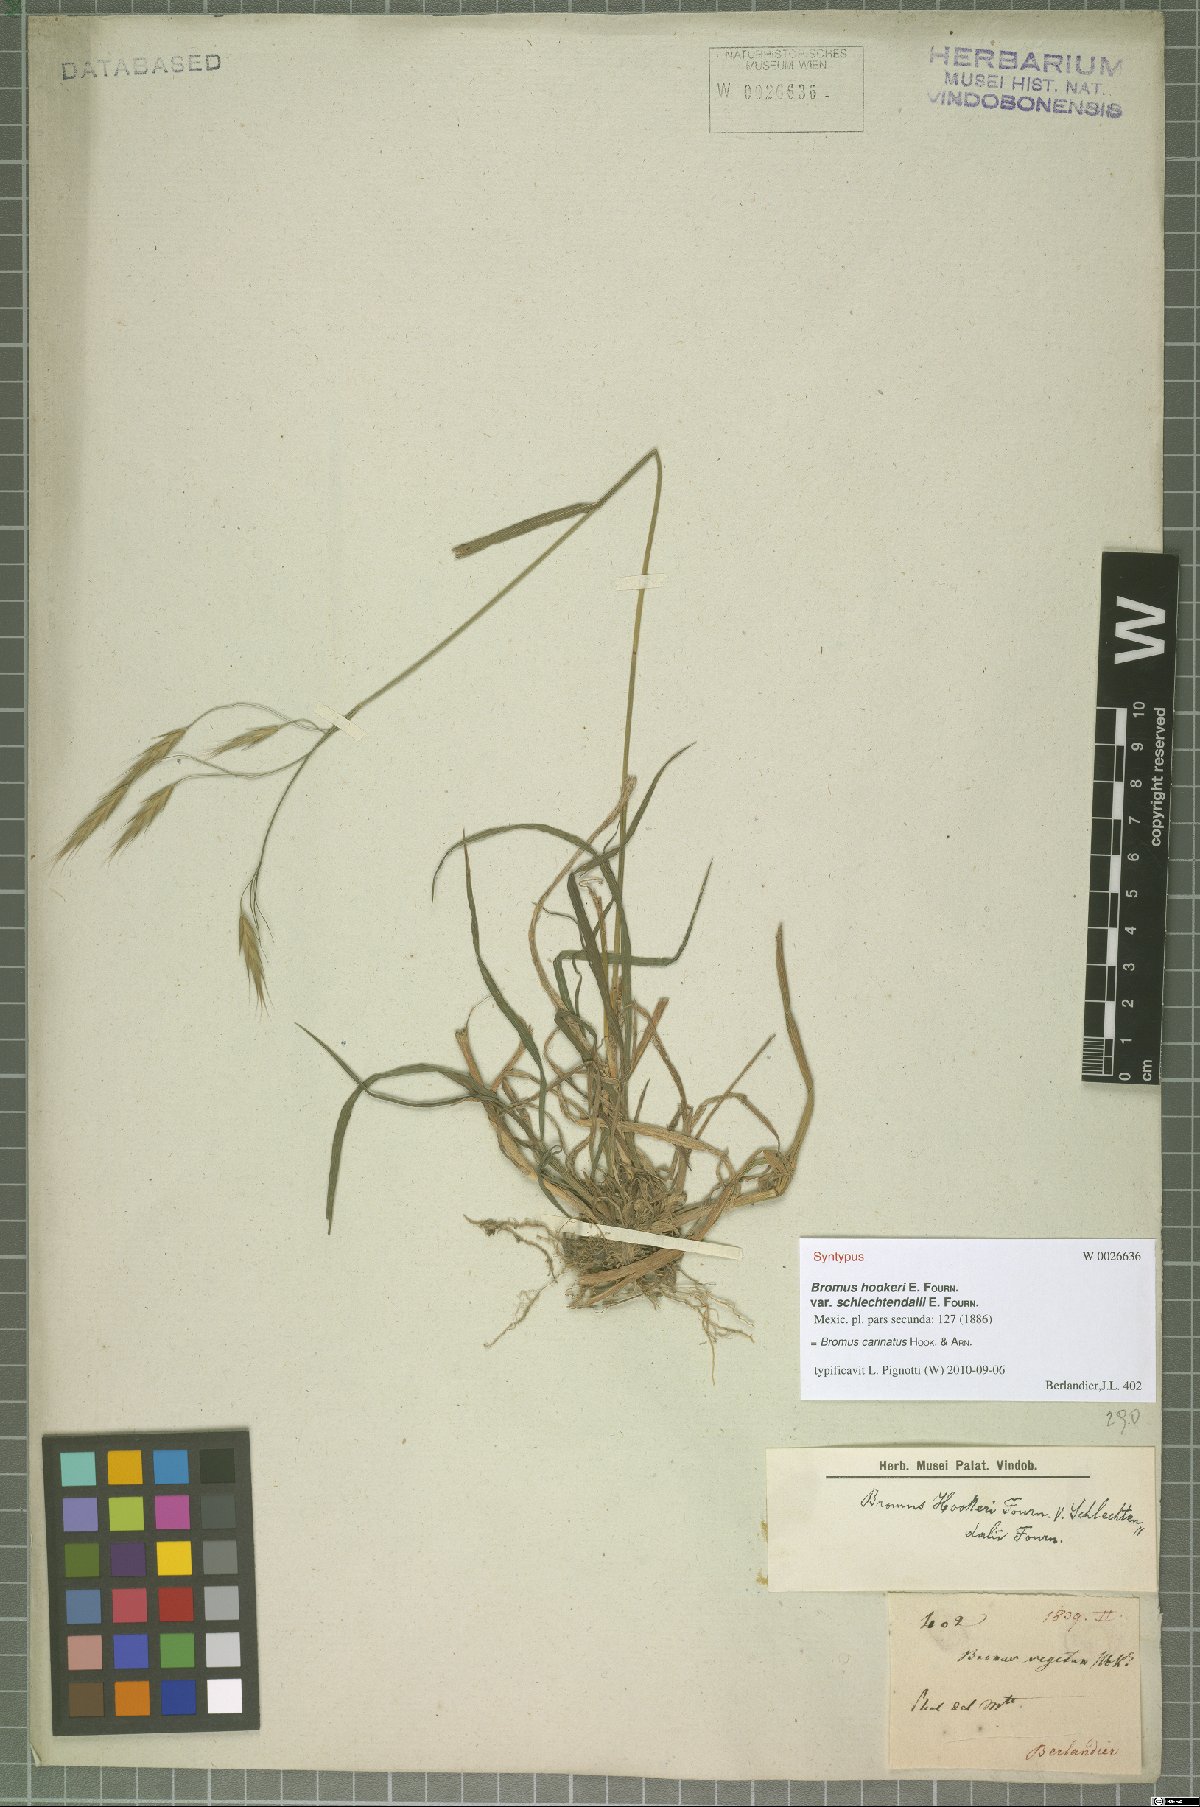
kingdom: Plantae
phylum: Tracheophyta
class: Liliopsida
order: Poales
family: Poaceae
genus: Bromus
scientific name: Bromus carinatus
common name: Mountain brome
